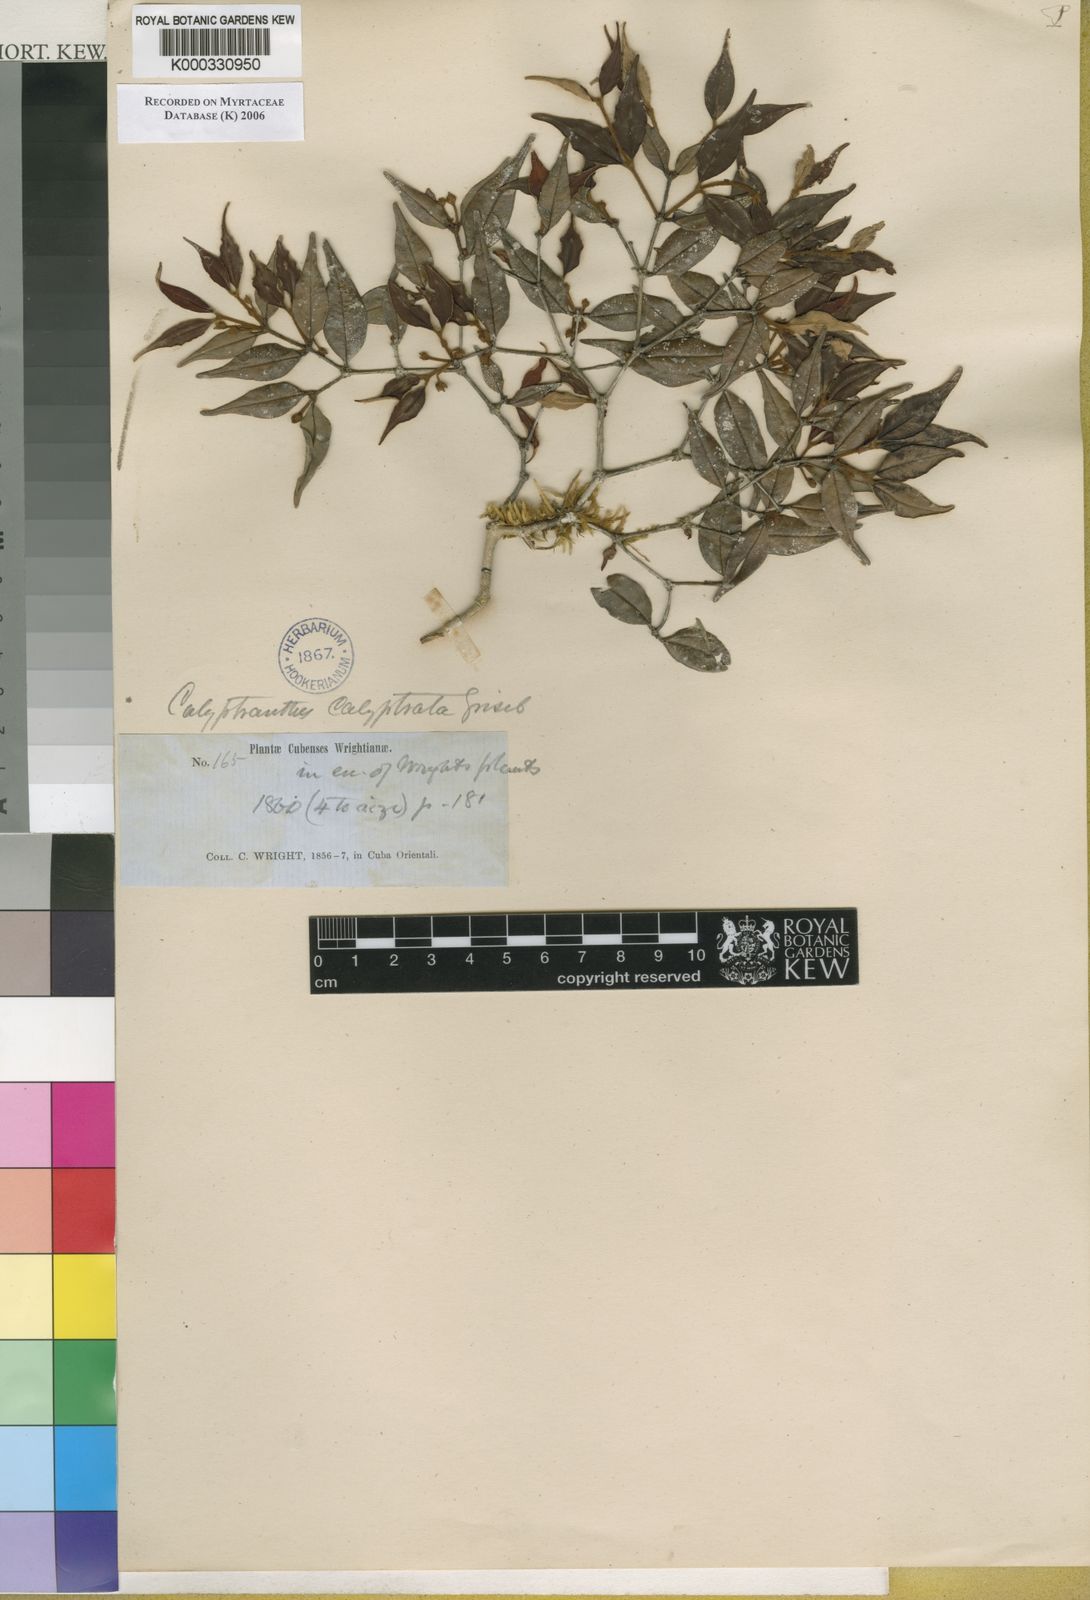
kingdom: Plantae
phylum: Tracheophyta
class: Magnoliopsida
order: Myrtales
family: Myrtaceae
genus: Myrcia
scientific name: Myrcia calyptrata
